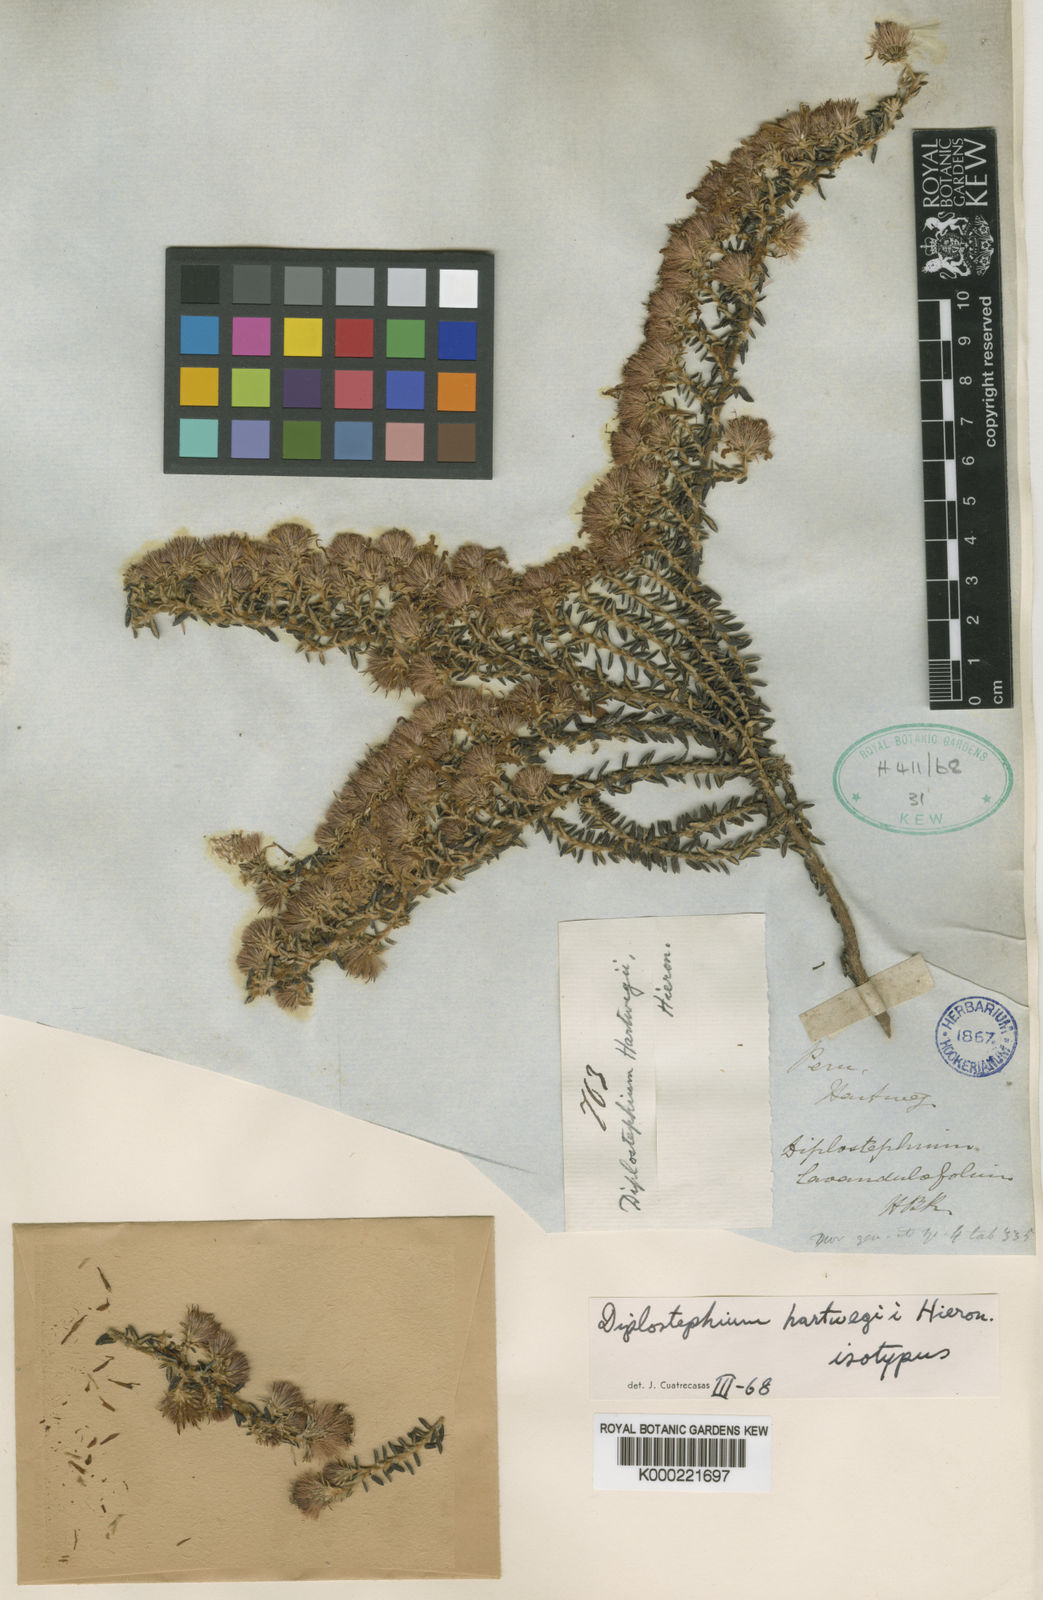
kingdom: Plantae
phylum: Tracheophyta
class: Magnoliopsida
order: Asterales
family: Asteraceae
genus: Diplostephium
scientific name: Diplostephium hartwegii
